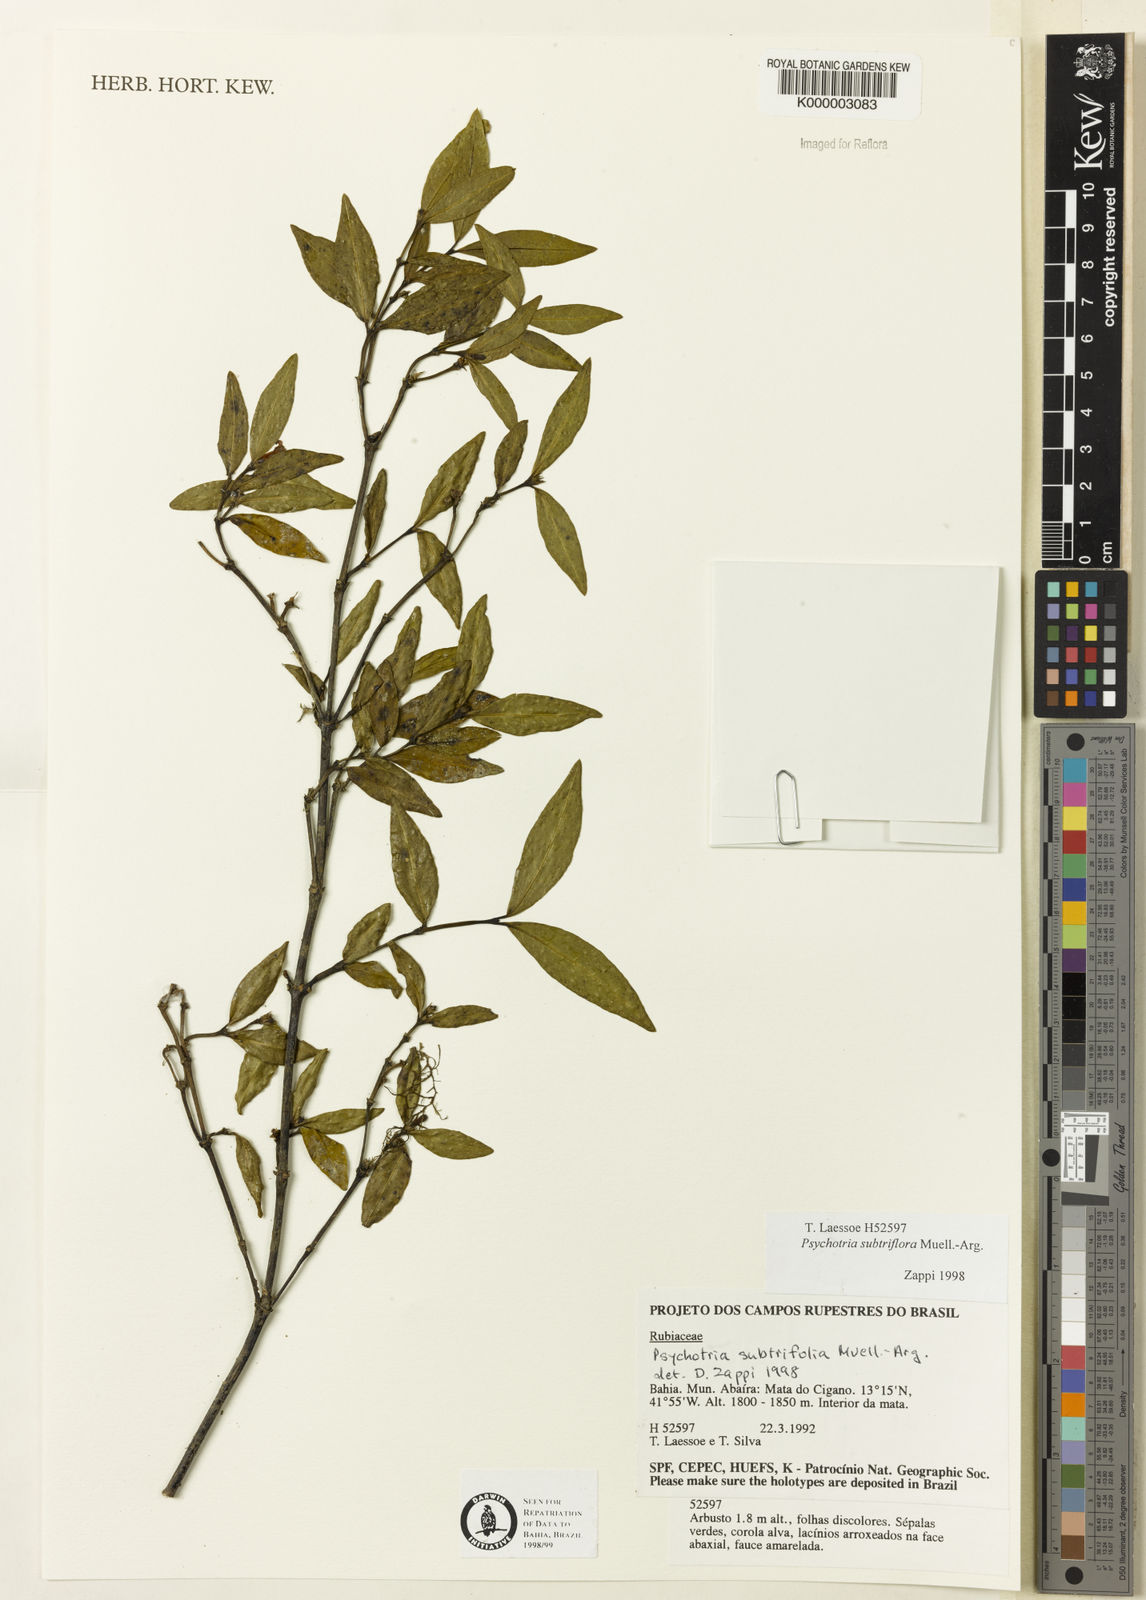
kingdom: Plantae
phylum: Tracheophyta
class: Magnoliopsida
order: Gentianales
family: Rubiaceae
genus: Psychotria
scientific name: Psychotria subtriflora
